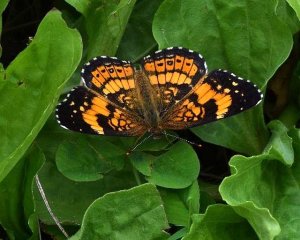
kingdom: Animalia
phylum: Arthropoda
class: Insecta
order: Lepidoptera
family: Nymphalidae
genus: Chlosyne
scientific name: Chlosyne nycteis
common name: Silvery Checkerspot
